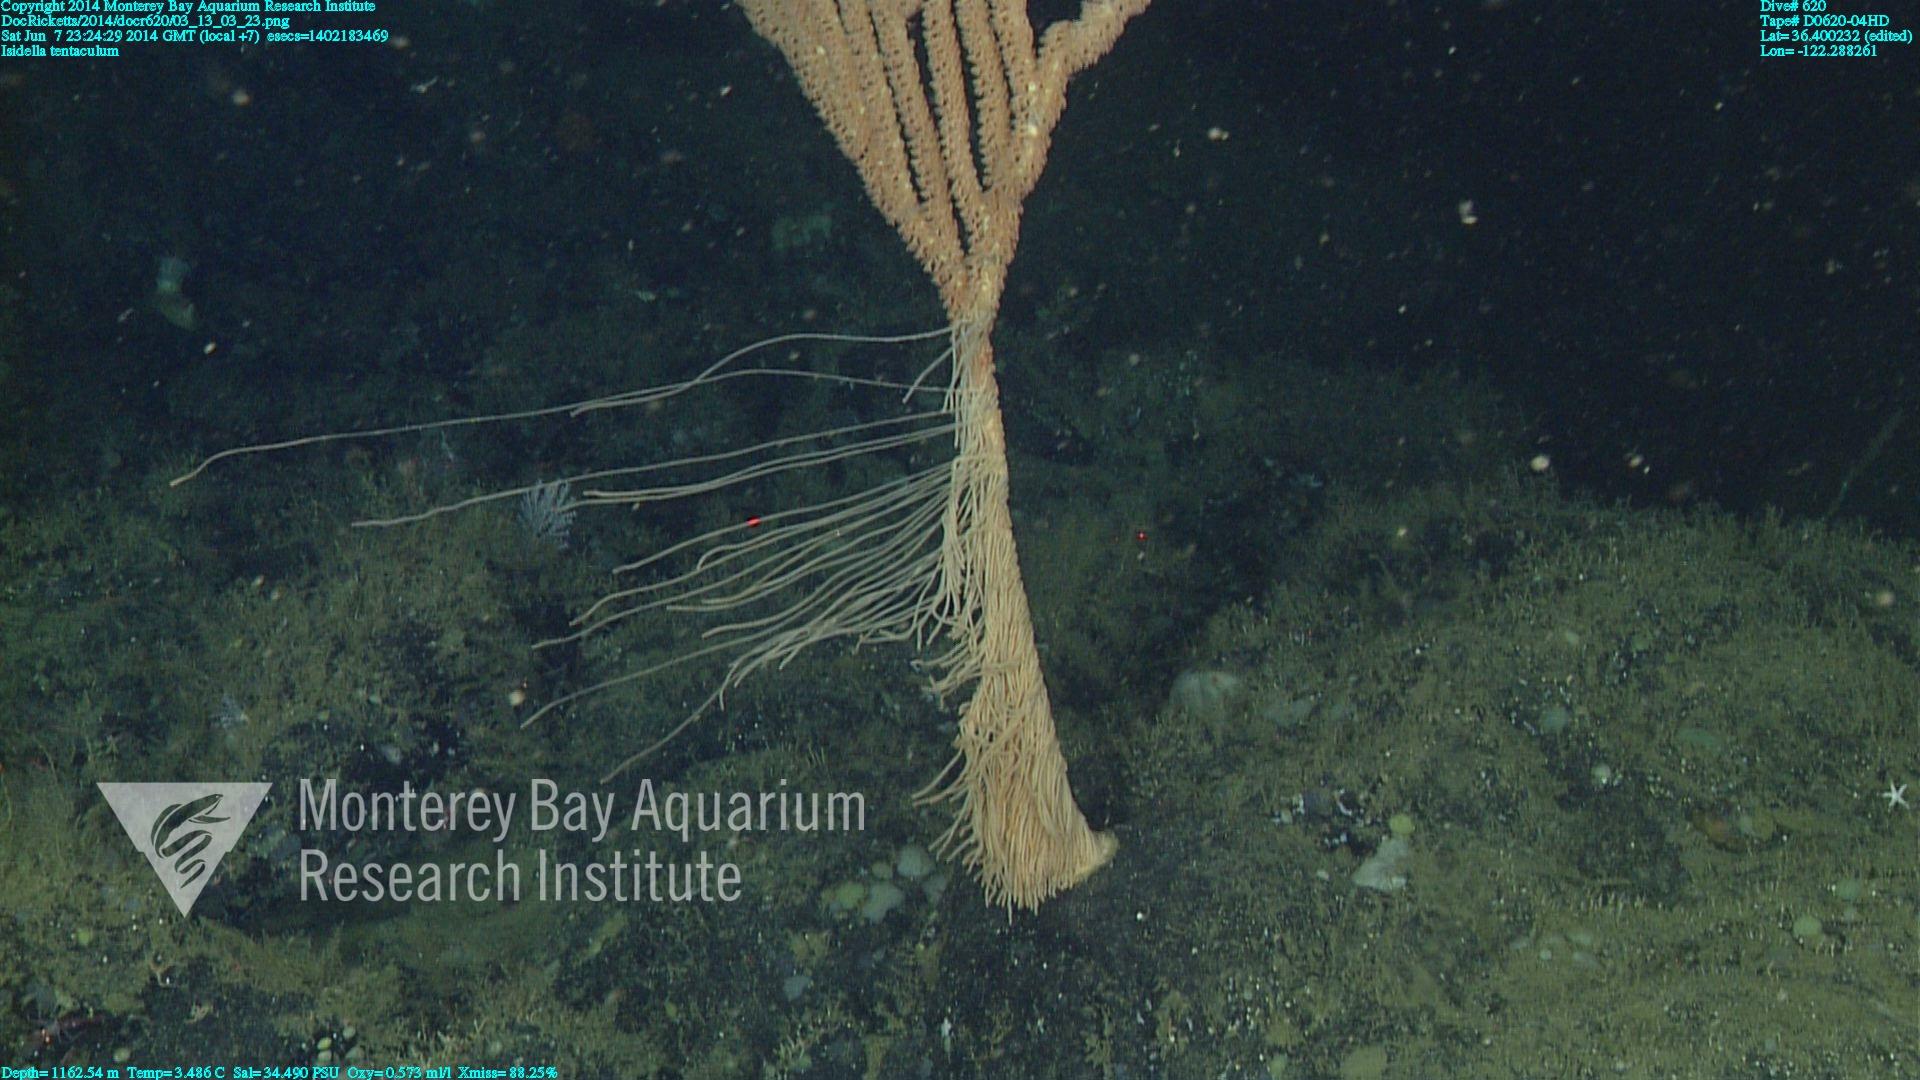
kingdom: Animalia
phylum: Cnidaria
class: Anthozoa
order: Scleralcyonacea
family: Keratoisididae
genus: Isidella
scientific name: Isidella tentaculum
